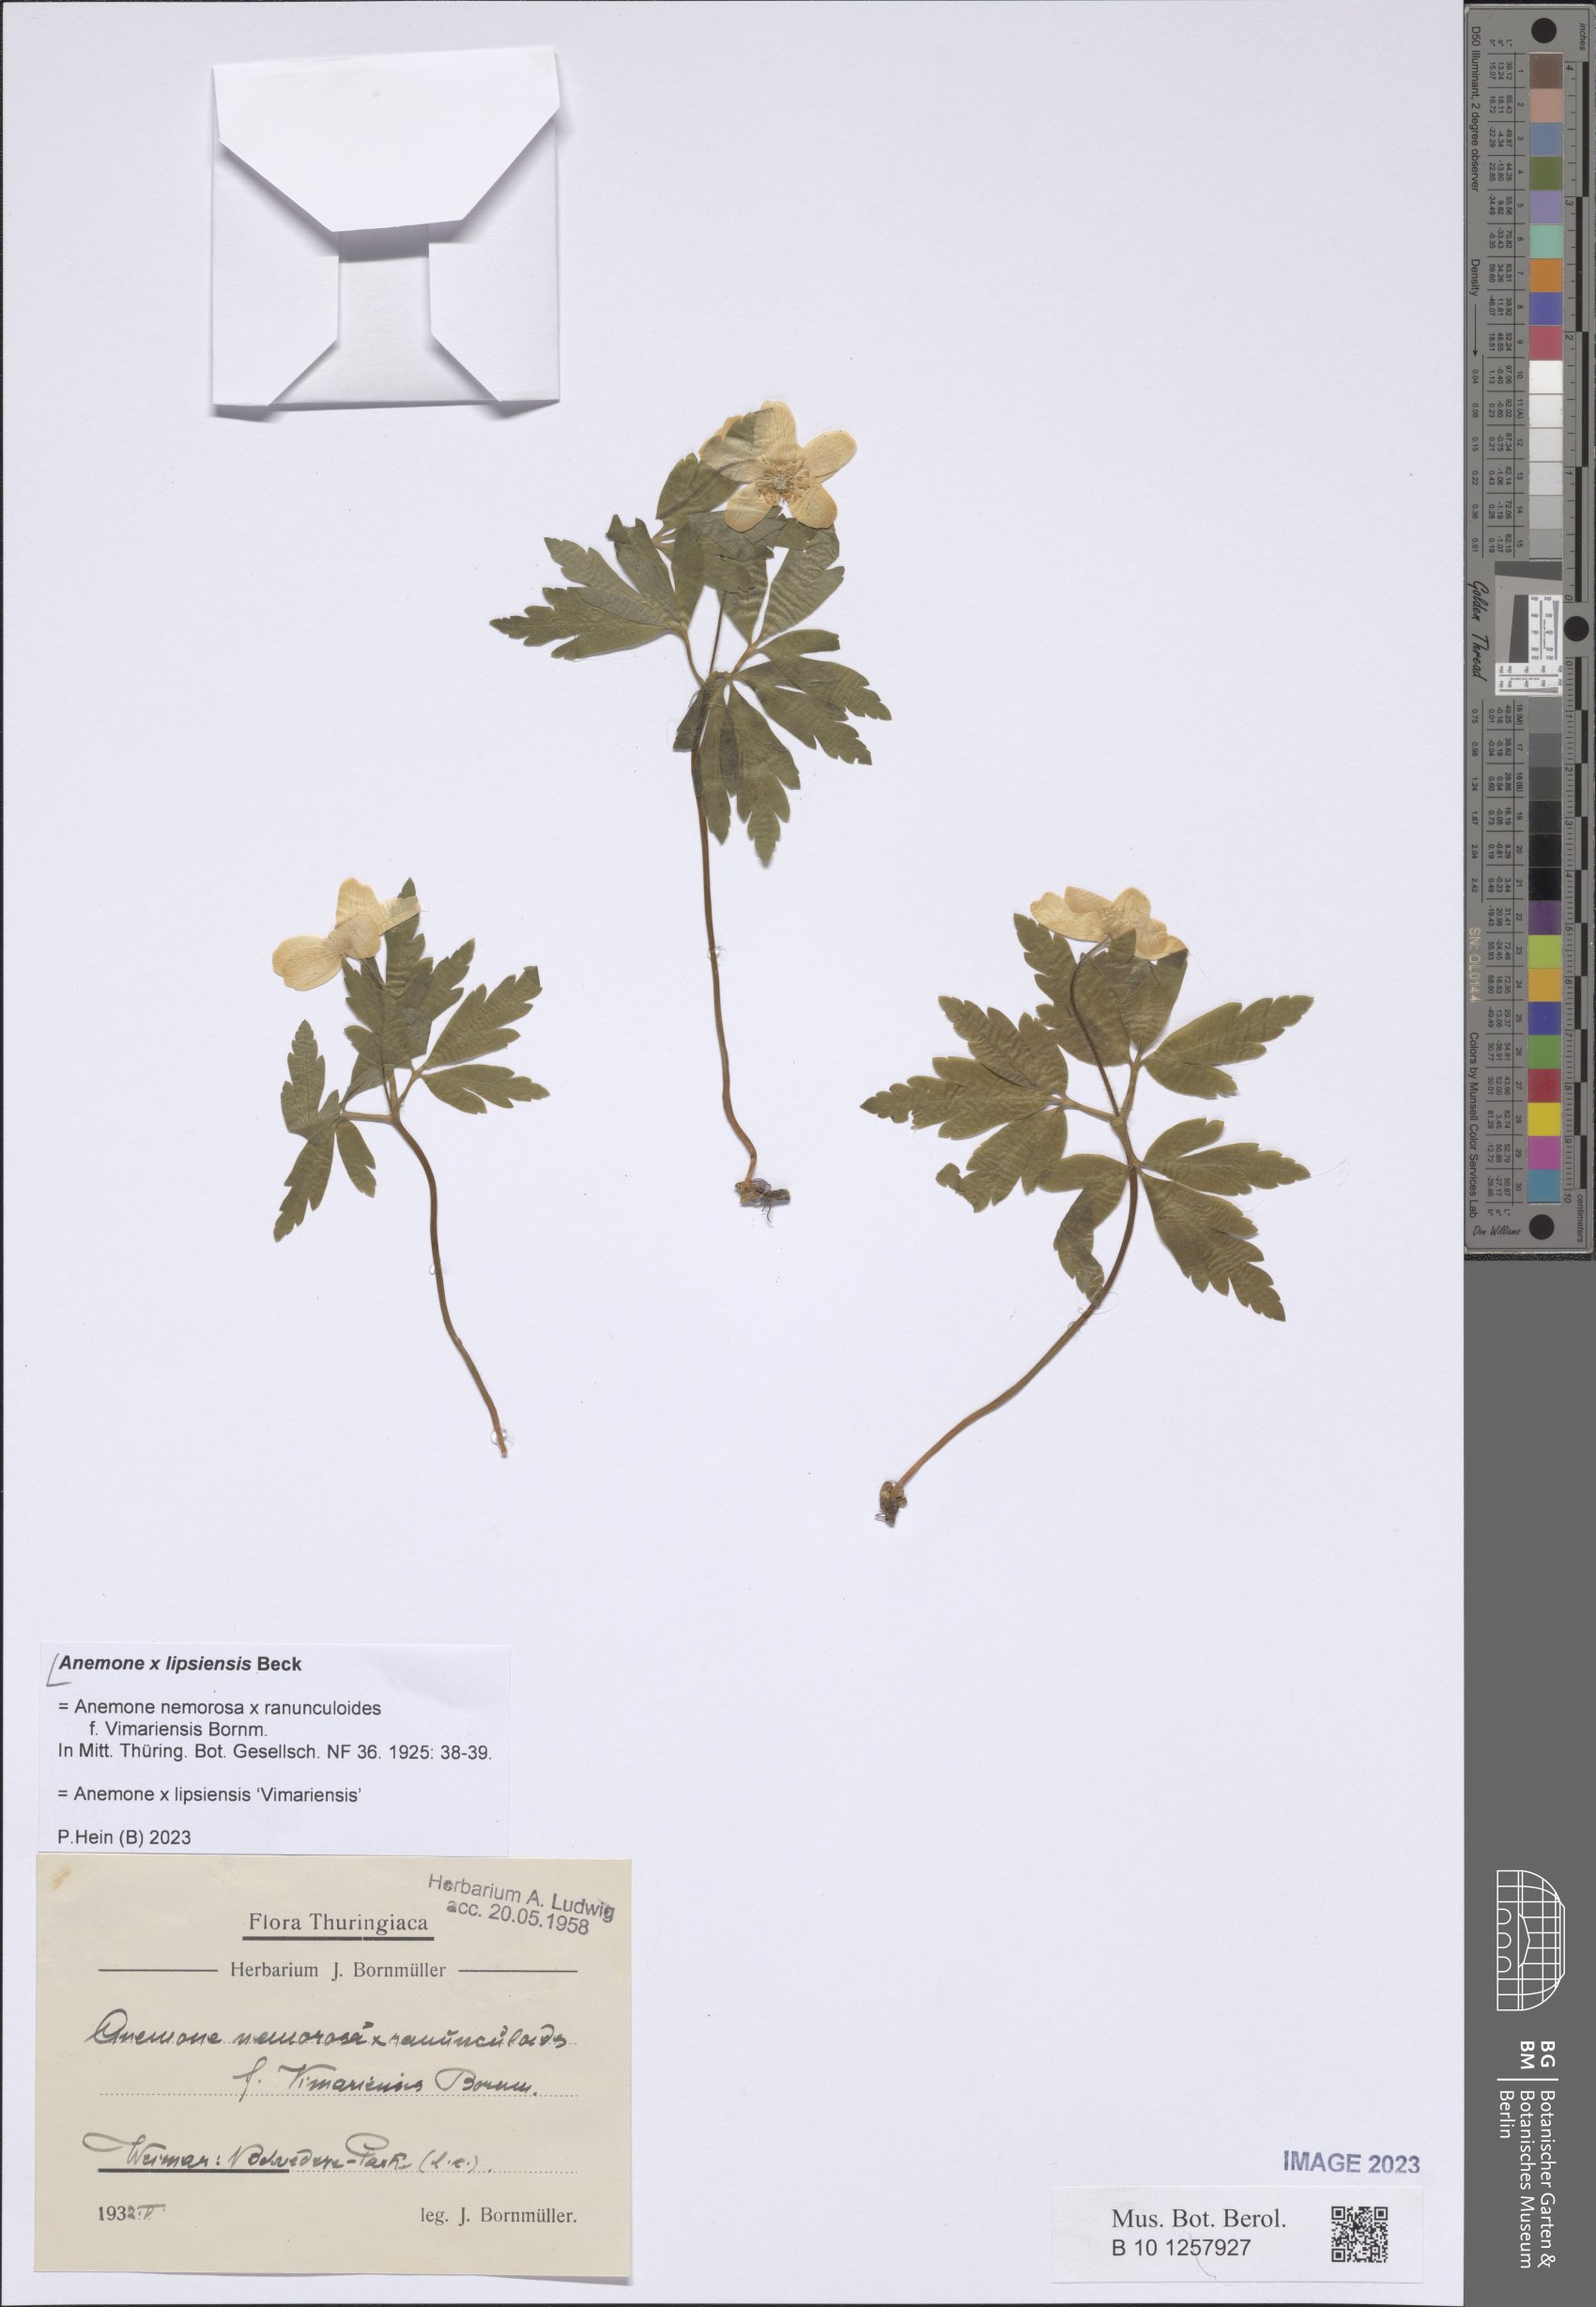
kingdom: Plantae
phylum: Tracheophyta
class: Magnoliopsida
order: Ranunculales
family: Ranunculaceae
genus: Anemone
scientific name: Anemone lipsiensis
